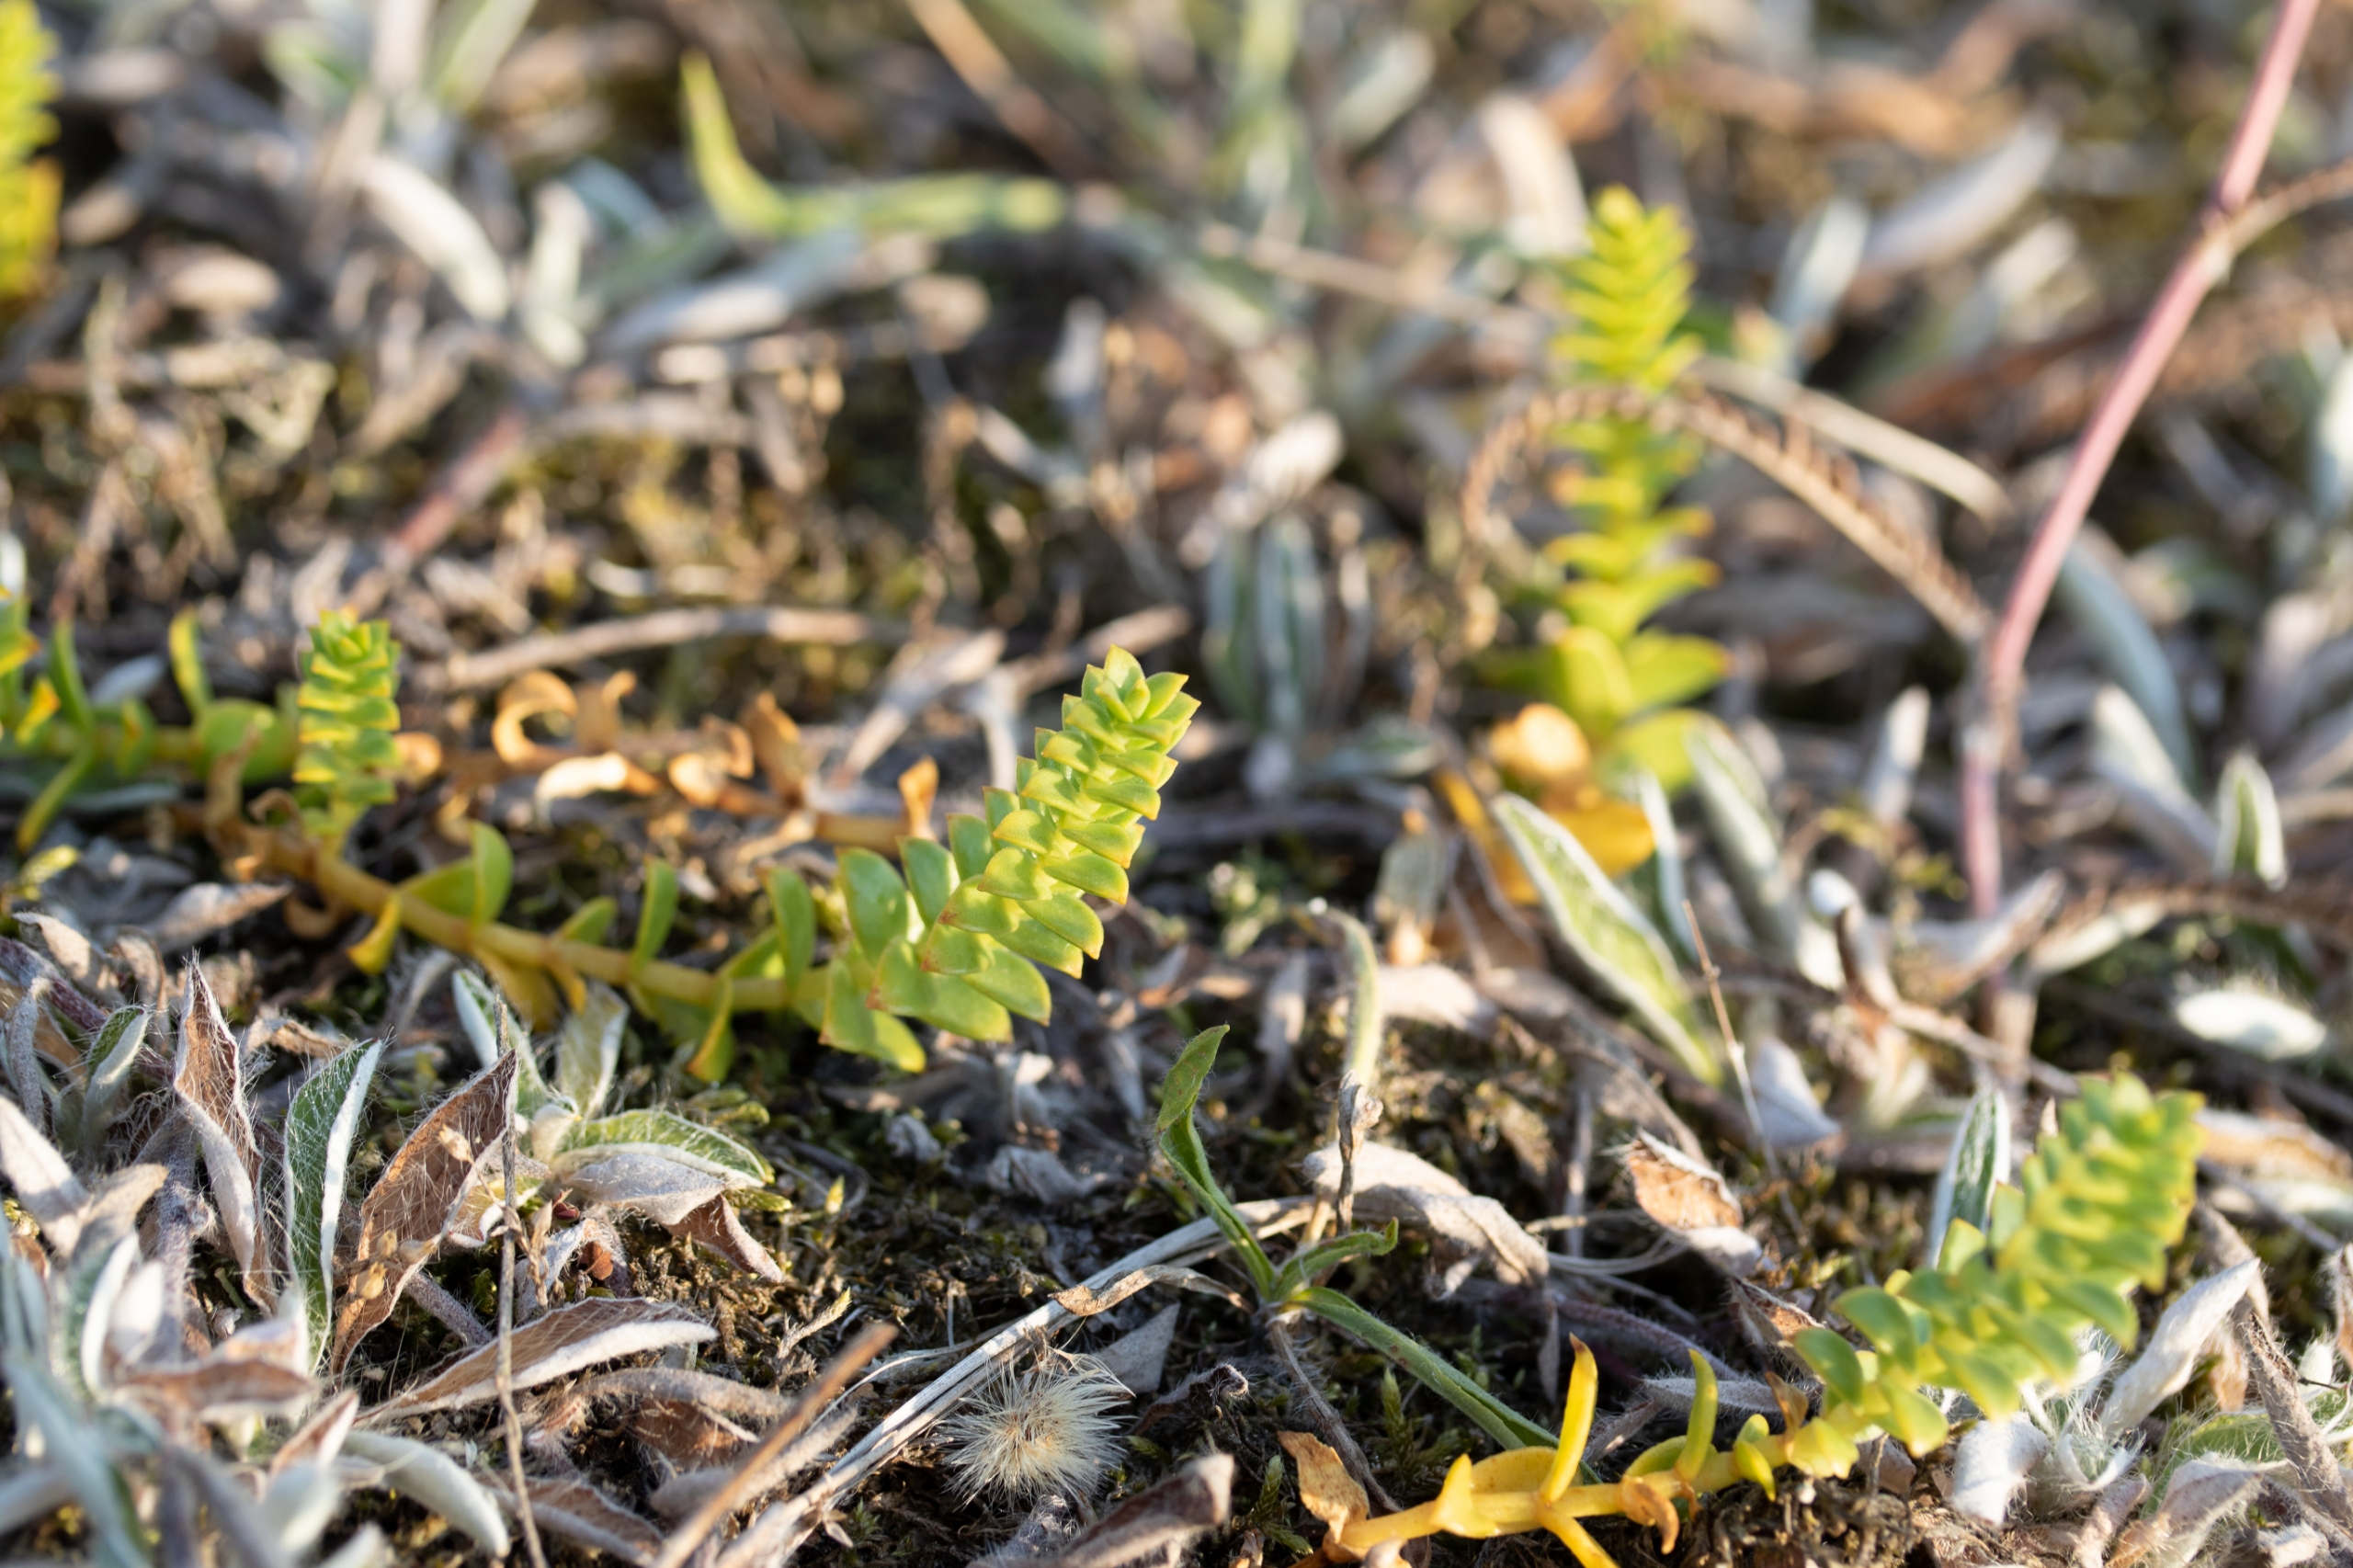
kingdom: Plantae
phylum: Tracheophyta
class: Magnoliopsida
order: Caryophyllales
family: Caryophyllaceae
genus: Honckenya
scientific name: Honckenya peploides
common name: Strandarve
